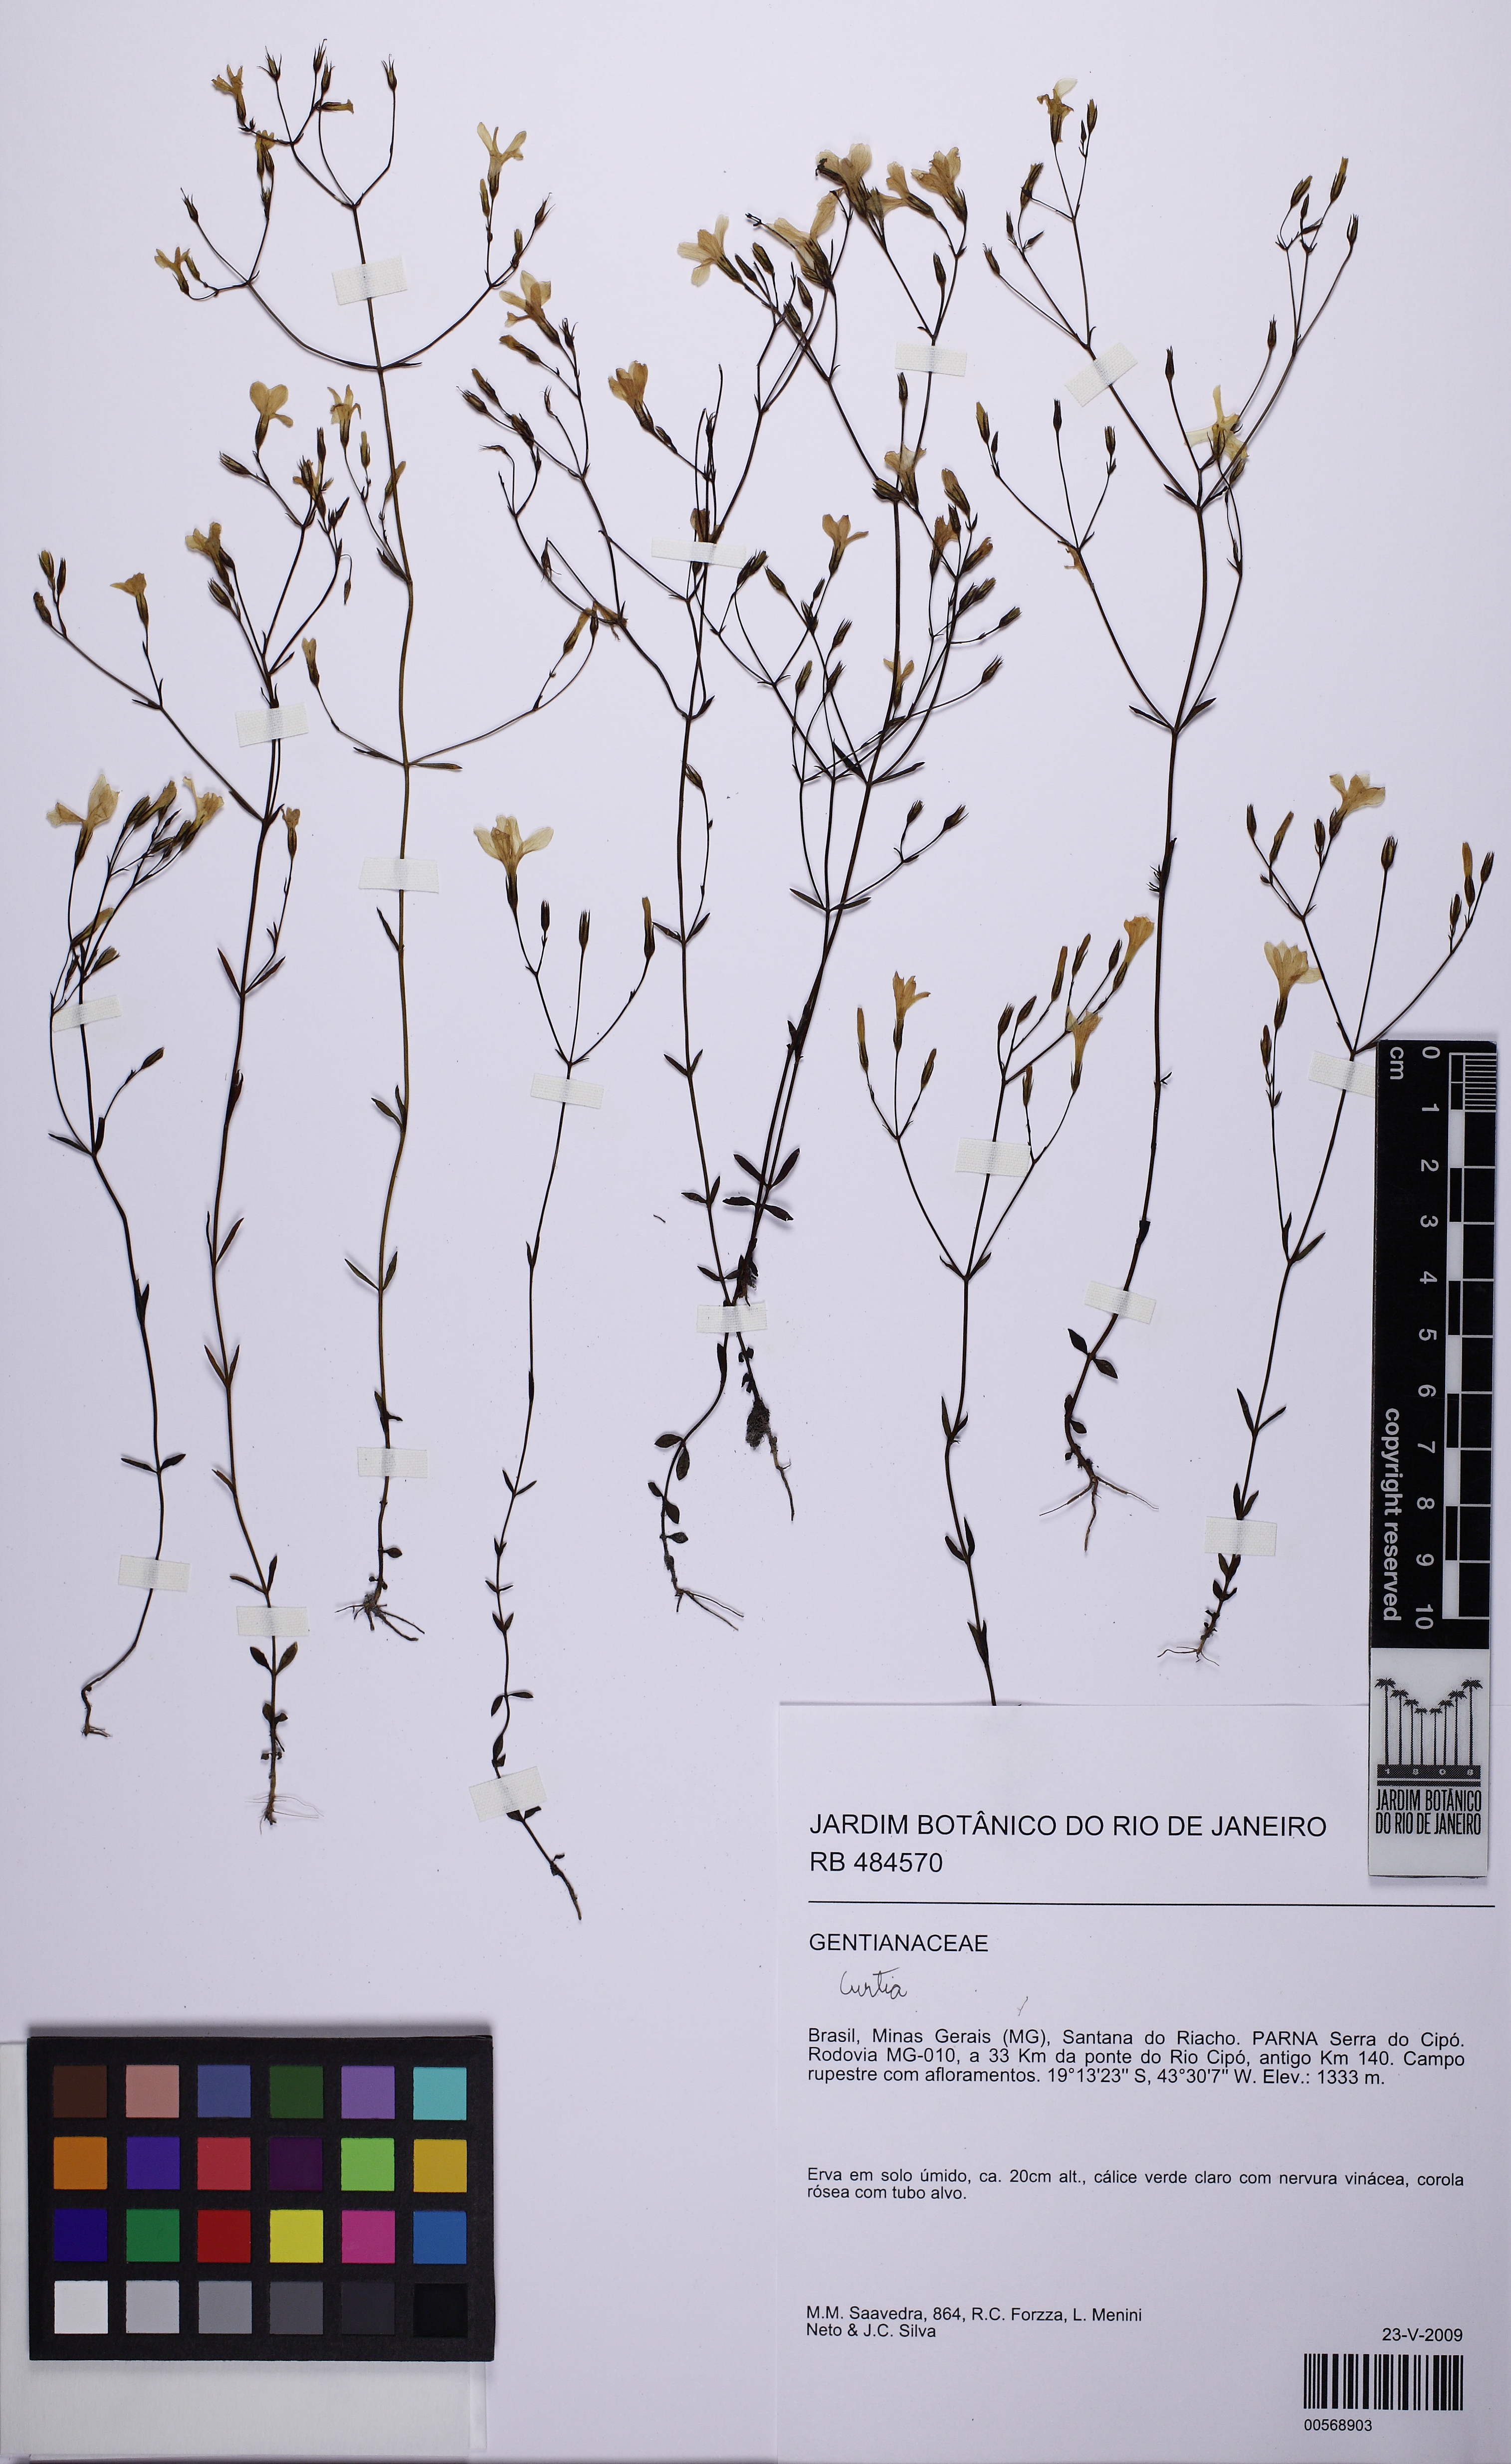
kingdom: Plantae
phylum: Tracheophyta
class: Magnoliopsida
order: Gentianales
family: Gentianaceae
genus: Curtia
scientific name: Curtia
